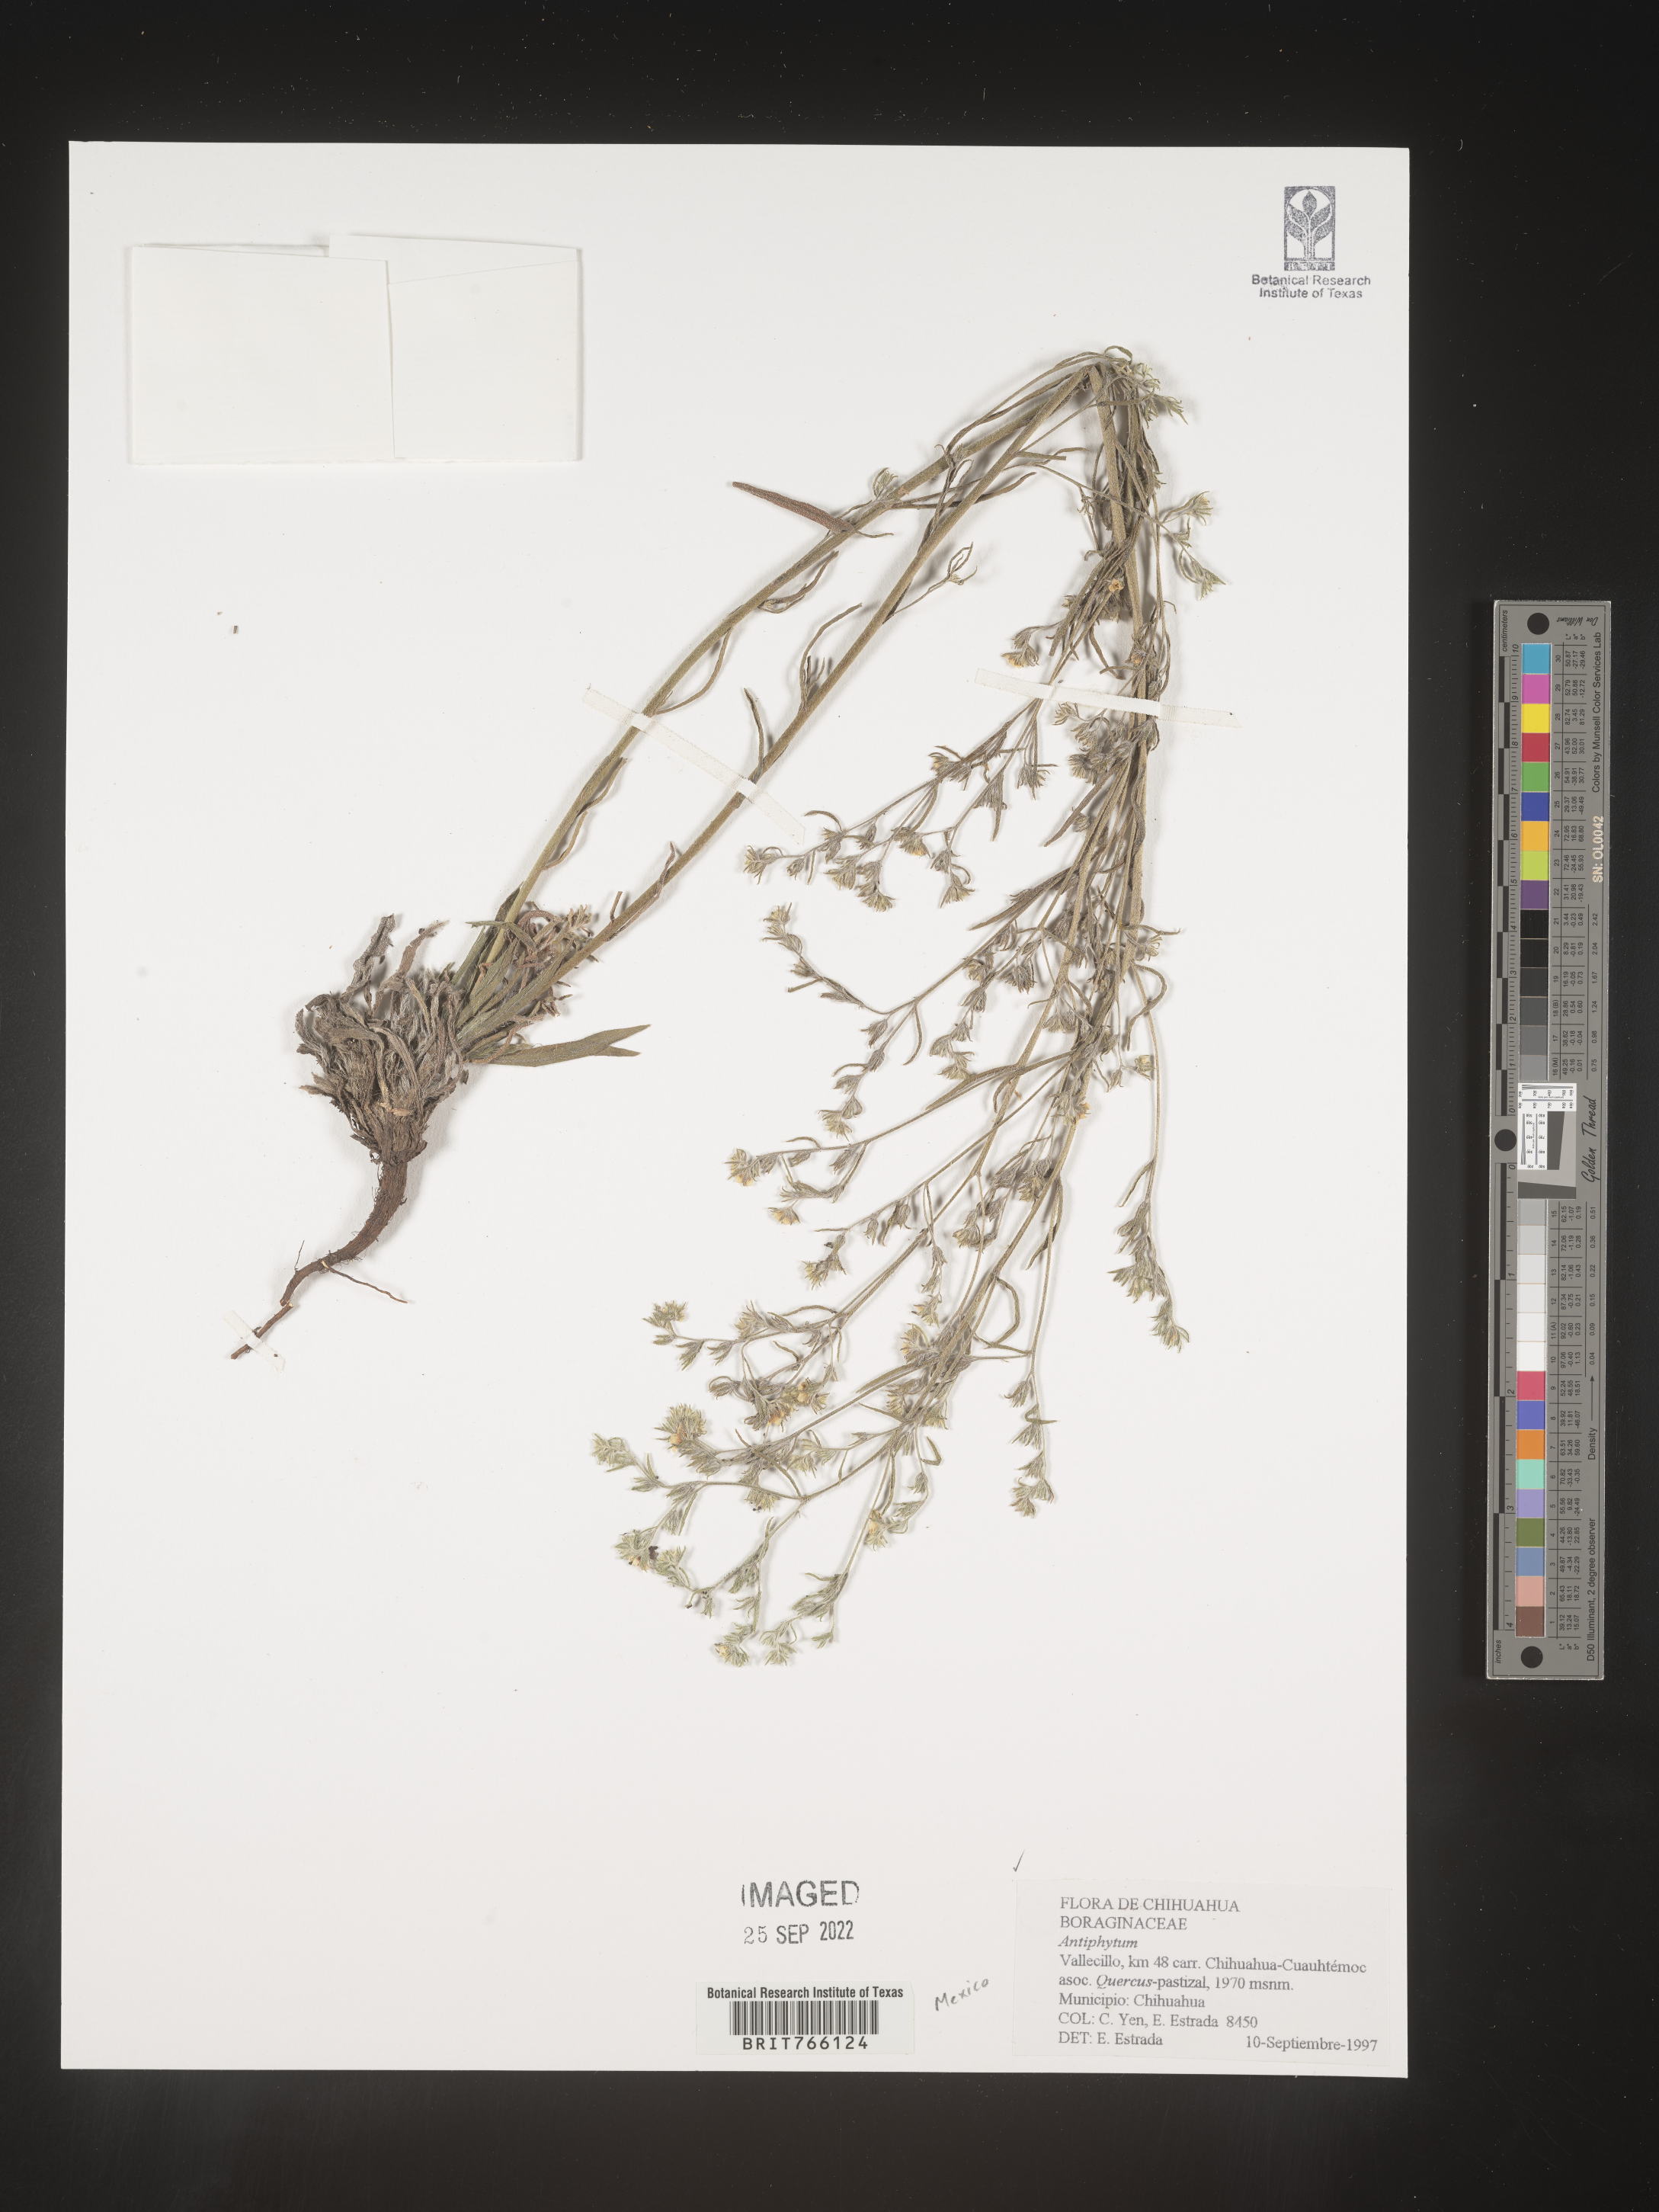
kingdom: Plantae
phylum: Tracheophyta
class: Magnoliopsida
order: Boraginales
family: Boraginaceae
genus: Antiphytum
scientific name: Antiphytum
